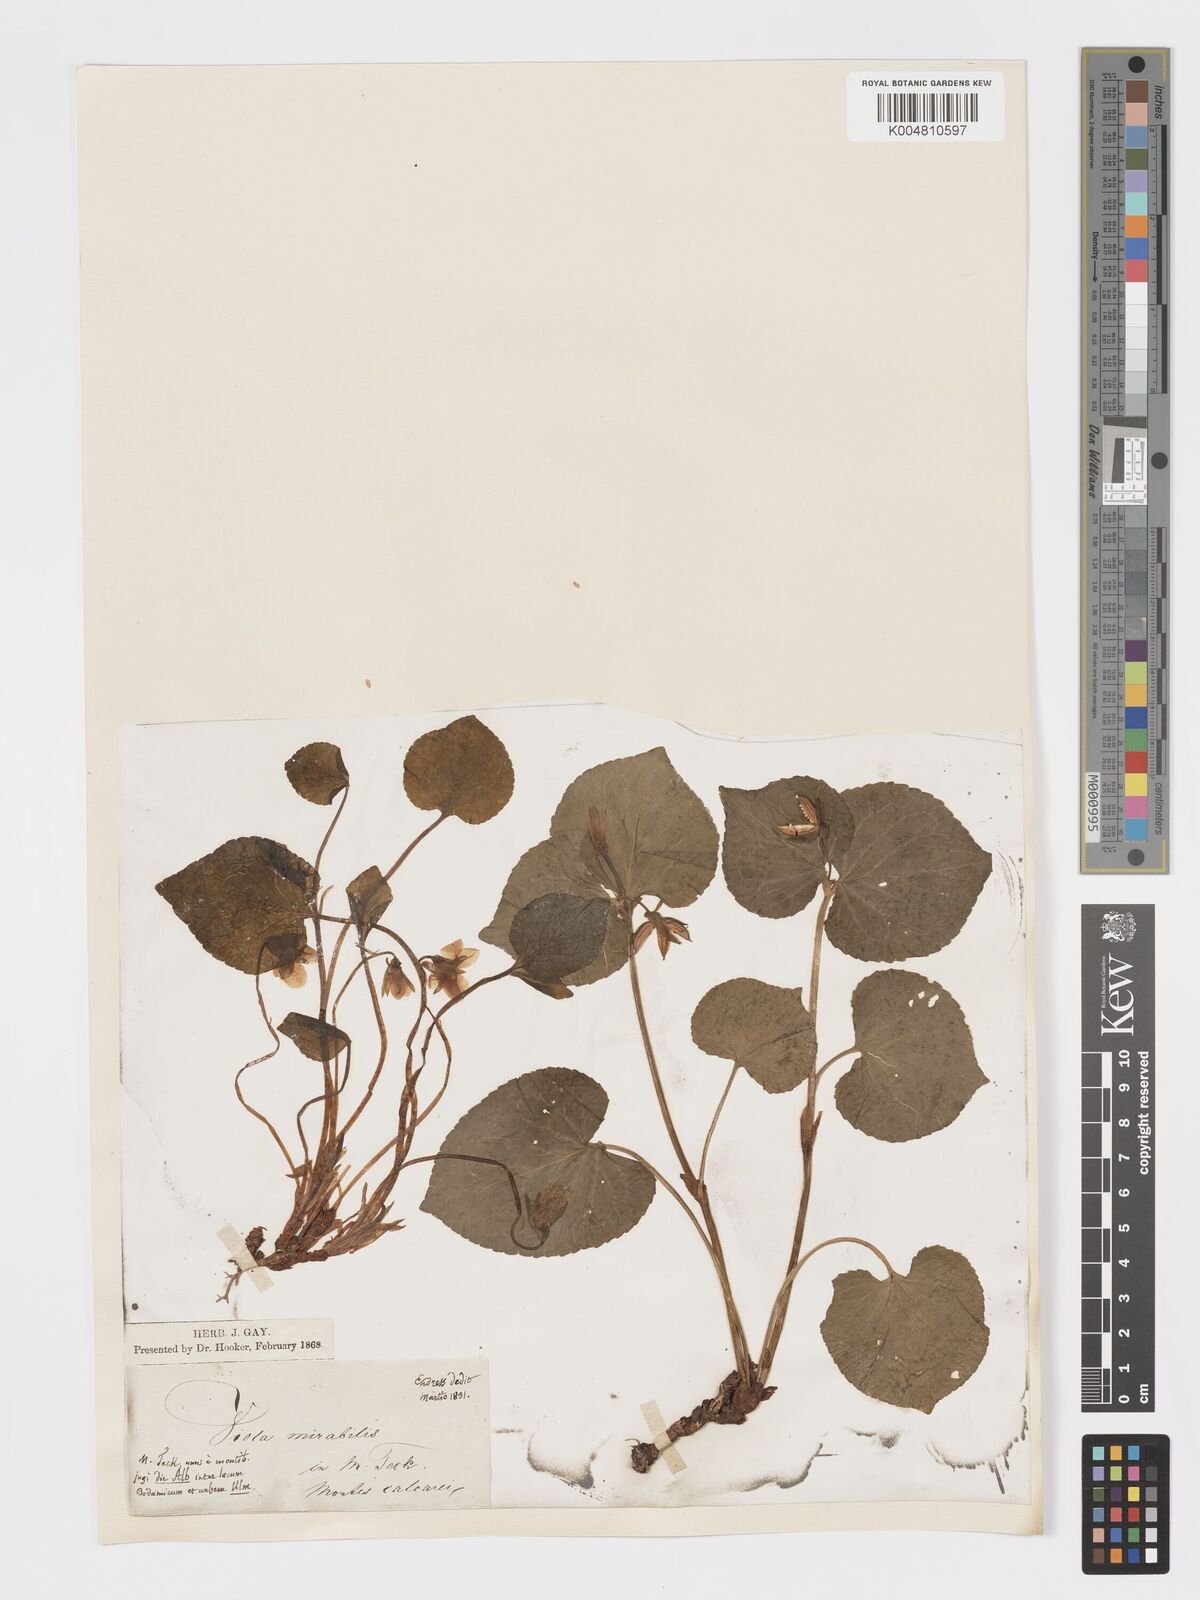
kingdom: Plantae
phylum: Tracheophyta
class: Magnoliopsida
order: Malpighiales
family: Violaceae
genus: Viola
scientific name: Viola mirabilis
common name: Wonder violet
